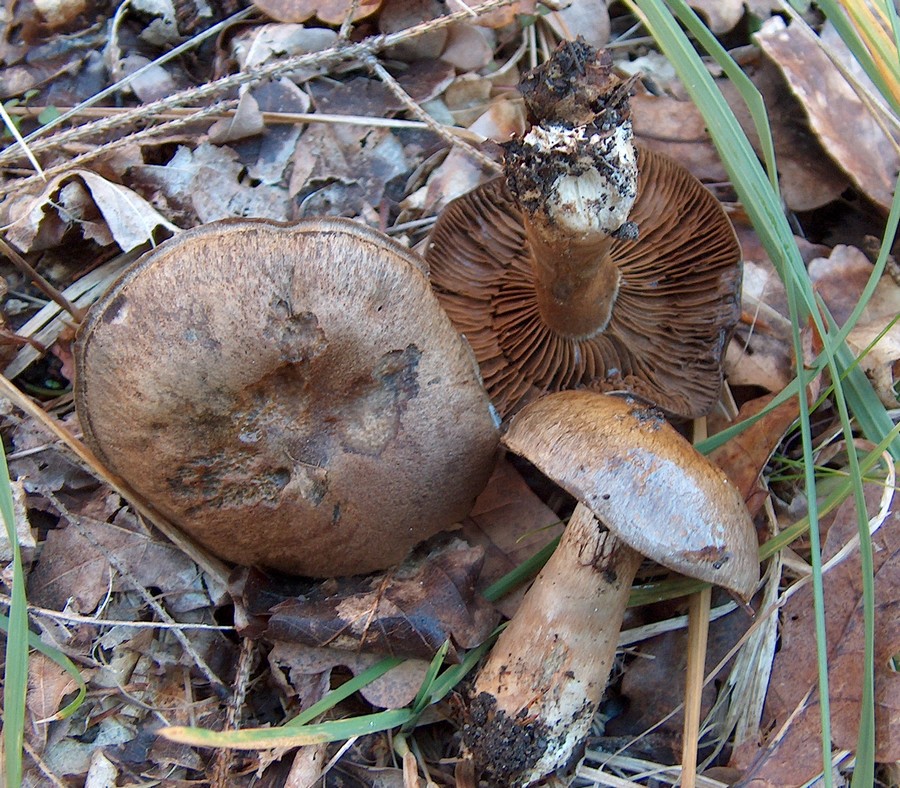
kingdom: Fungi
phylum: Basidiomycota
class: Agaricomycetes
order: Agaricales
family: Cortinariaceae
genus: Cortinarius
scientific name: Cortinarius
